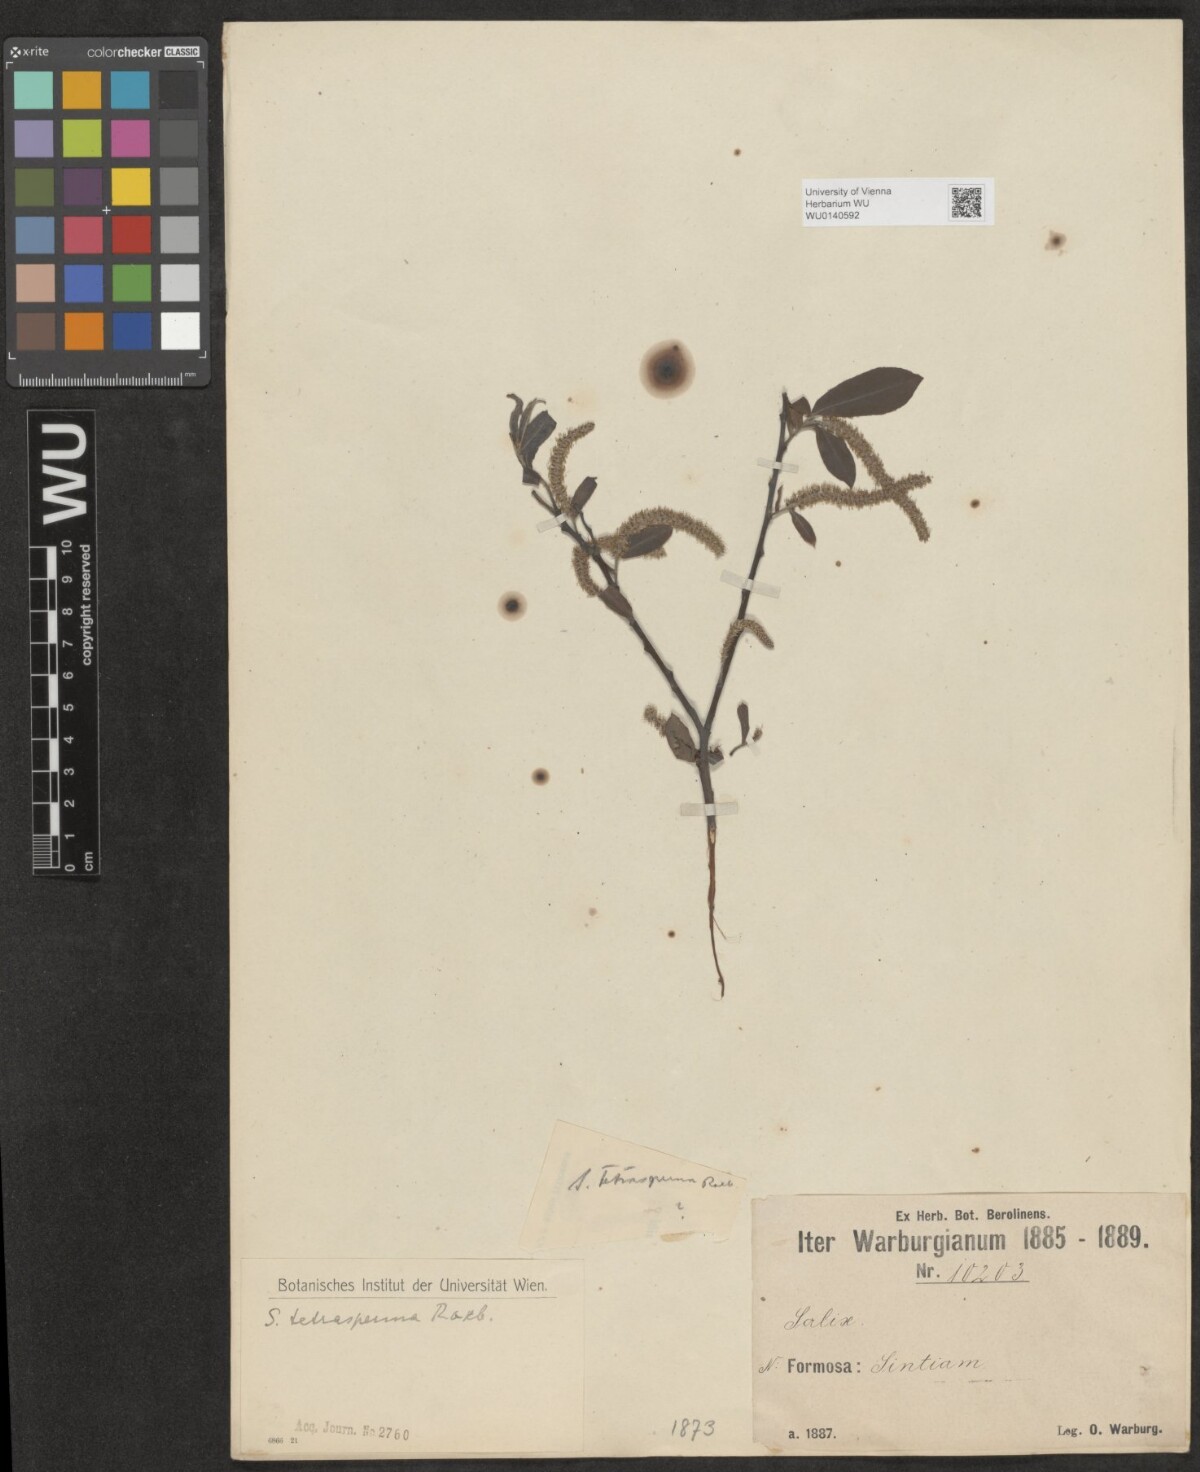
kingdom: Plantae
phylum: Tracheophyta
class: Magnoliopsida
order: Malpighiales
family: Salicaceae
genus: Salix
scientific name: Salix tetrasperma
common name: Indian willow
